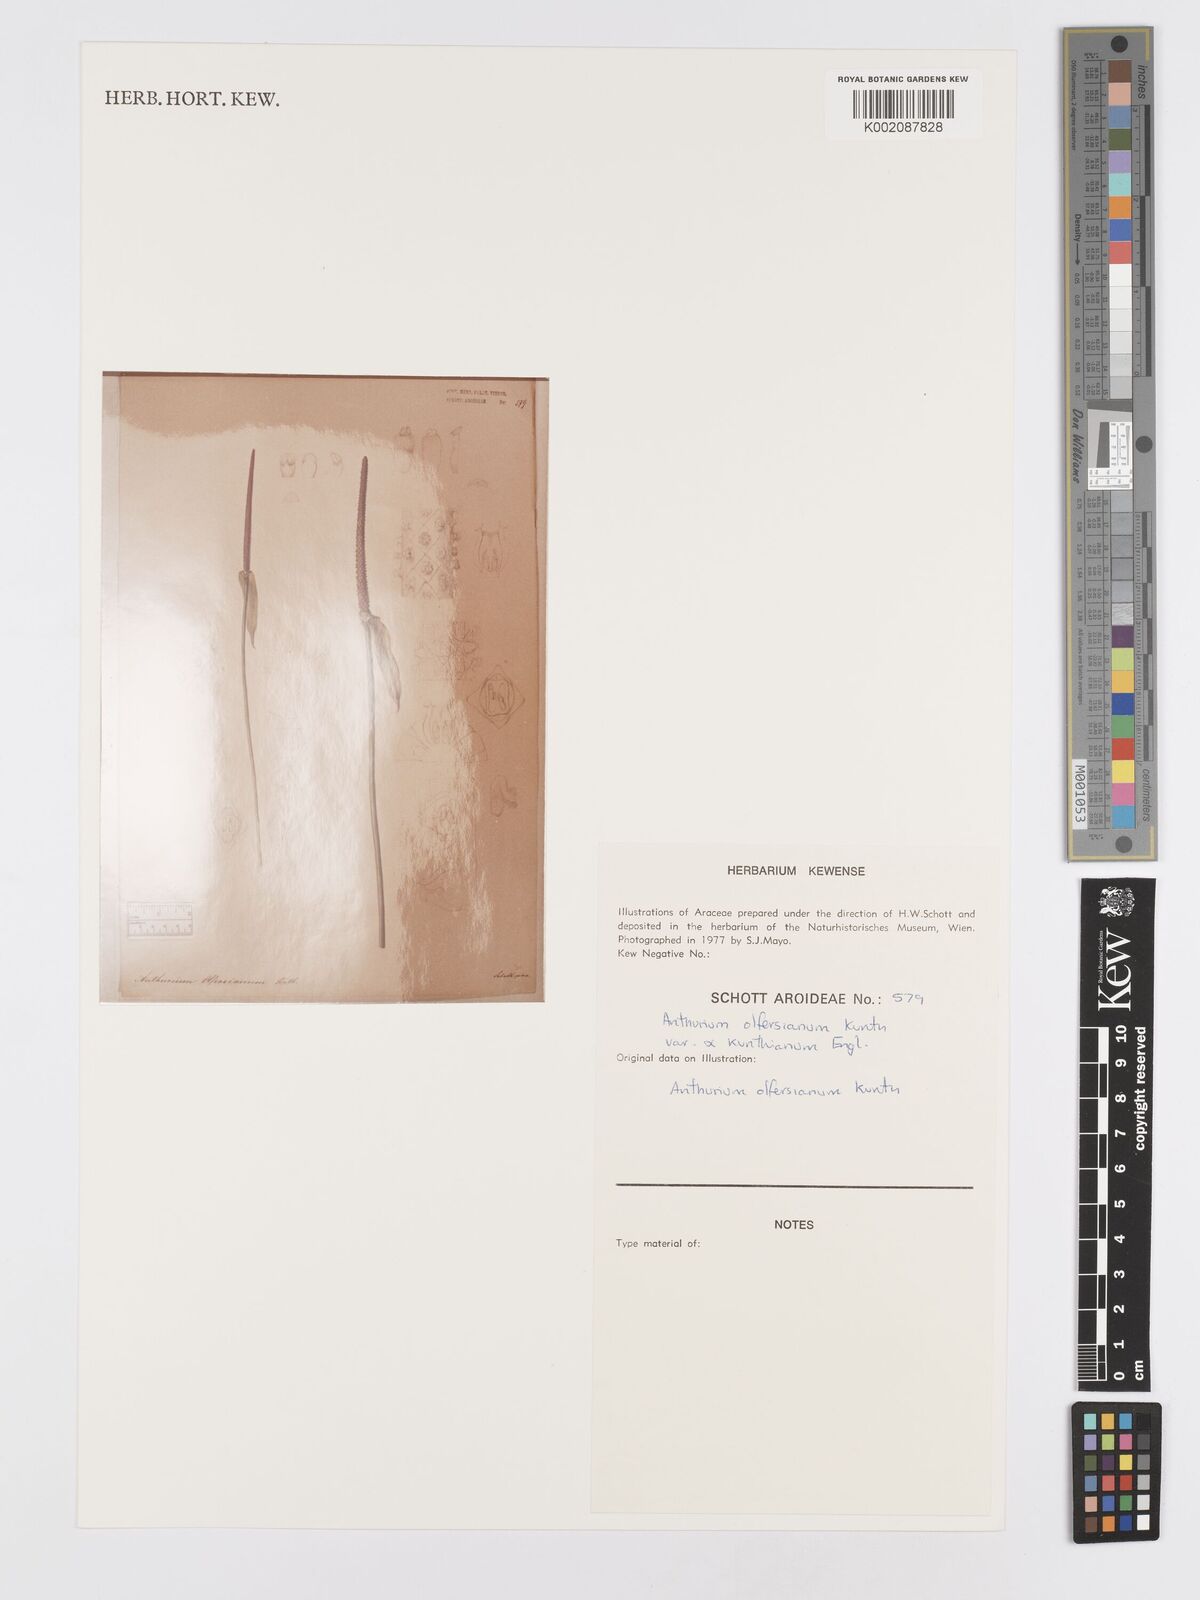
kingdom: Plantae
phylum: Tracheophyta
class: Liliopsida
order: Alismatales
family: Araceae
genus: Anthurium
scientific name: Anthurium parasiticum
